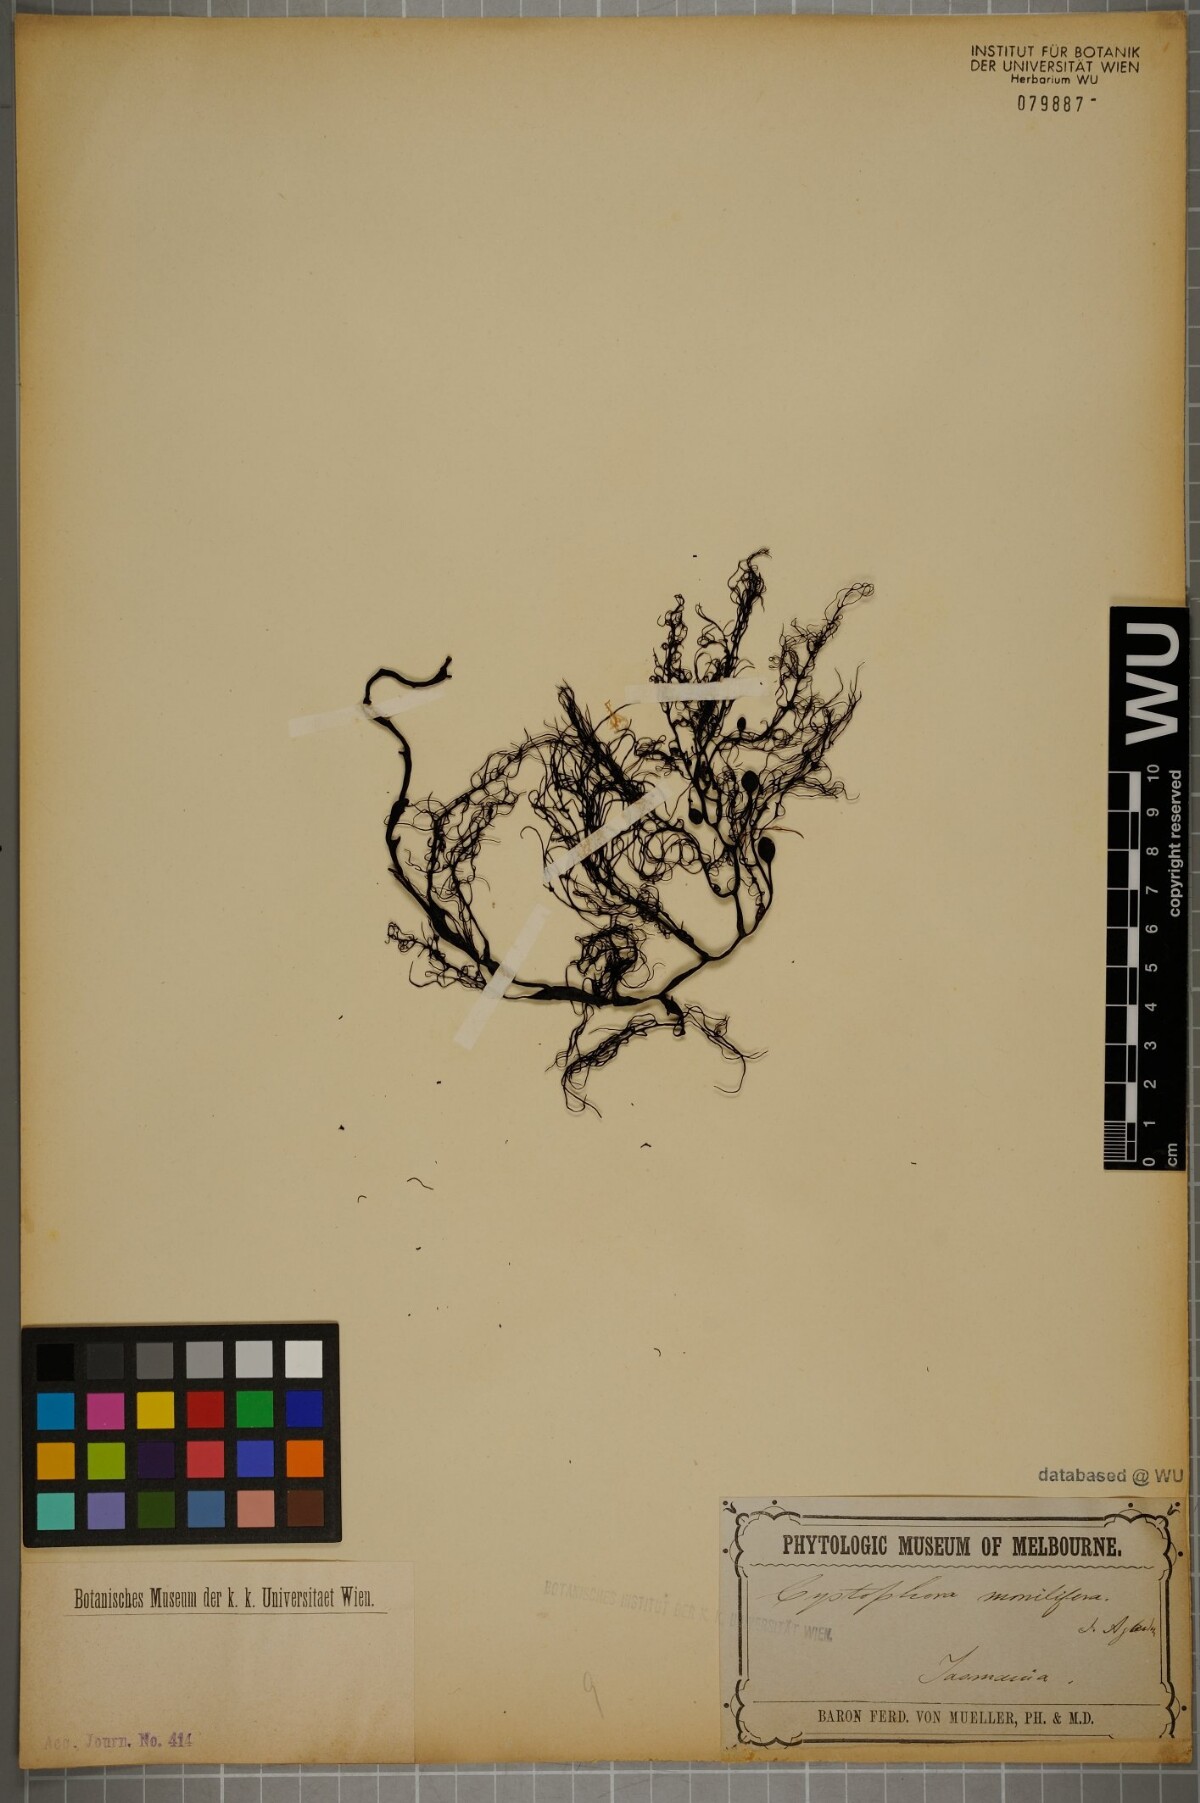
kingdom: Chromista
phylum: Ochrophyta
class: Phaeophyceae
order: Fucales
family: Sargassaceae
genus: Cystophora
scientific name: Cystophora
